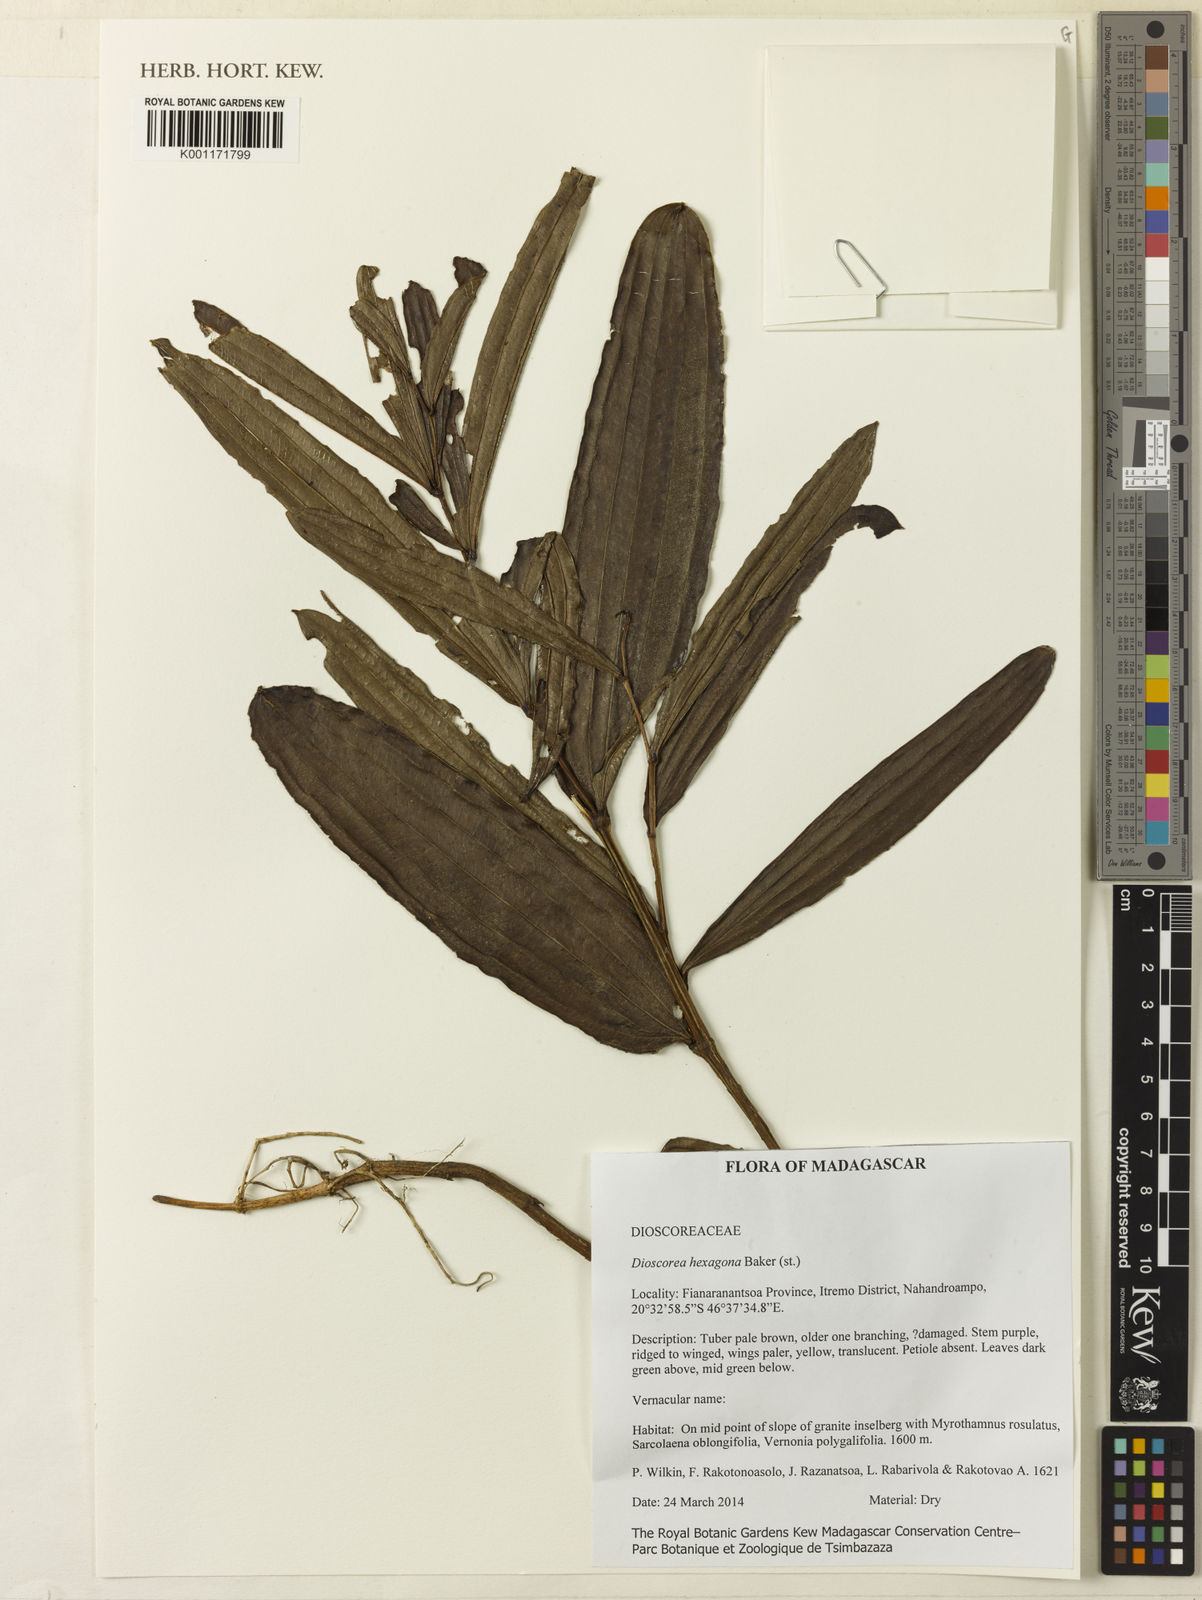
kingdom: Plantae
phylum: Tracheophyta
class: Liliopsida
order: Dioscoreales
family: Dioscoreaceae
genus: Dioscorea
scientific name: Dioscorea hexagona
